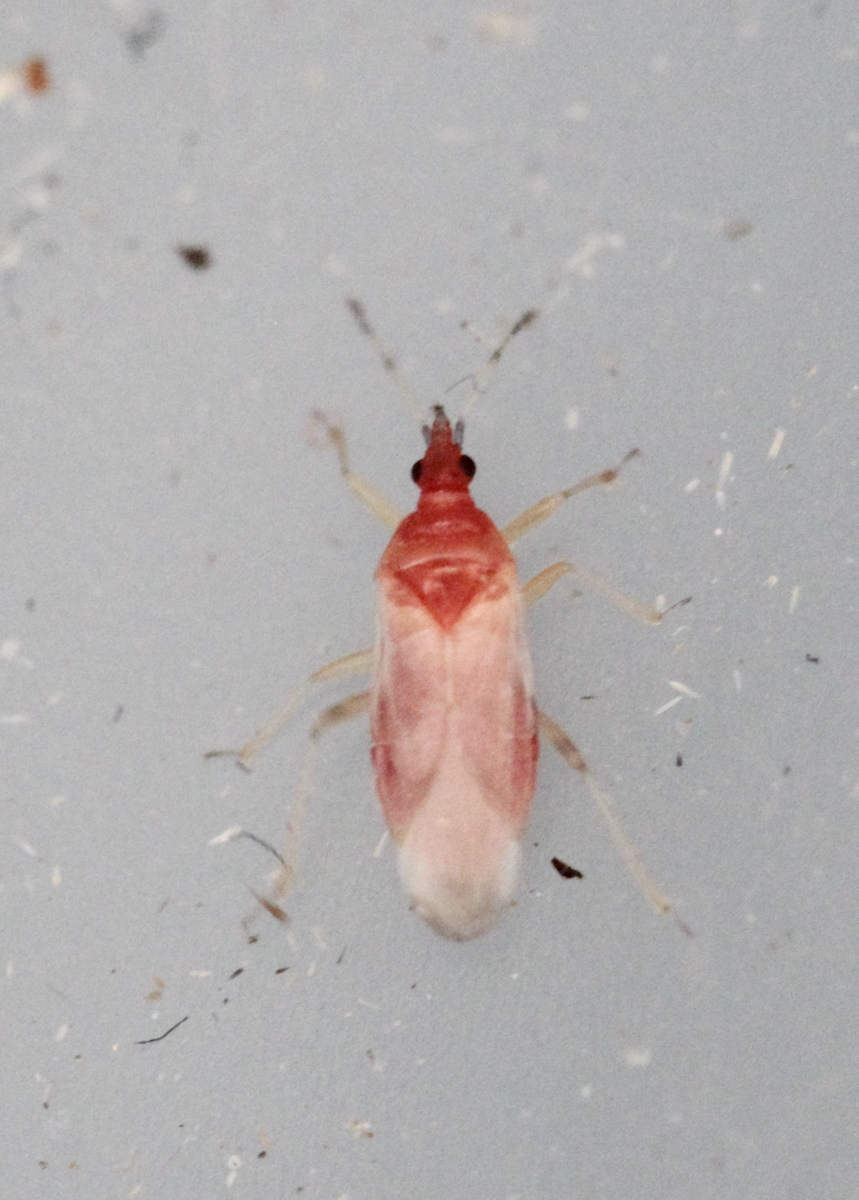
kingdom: Animalia
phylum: Arthropoda
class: Insecta
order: Hemiptera
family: Anthocoridae
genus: Anthocoris
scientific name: Anthocoris nemorum
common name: Minute pirate bug
